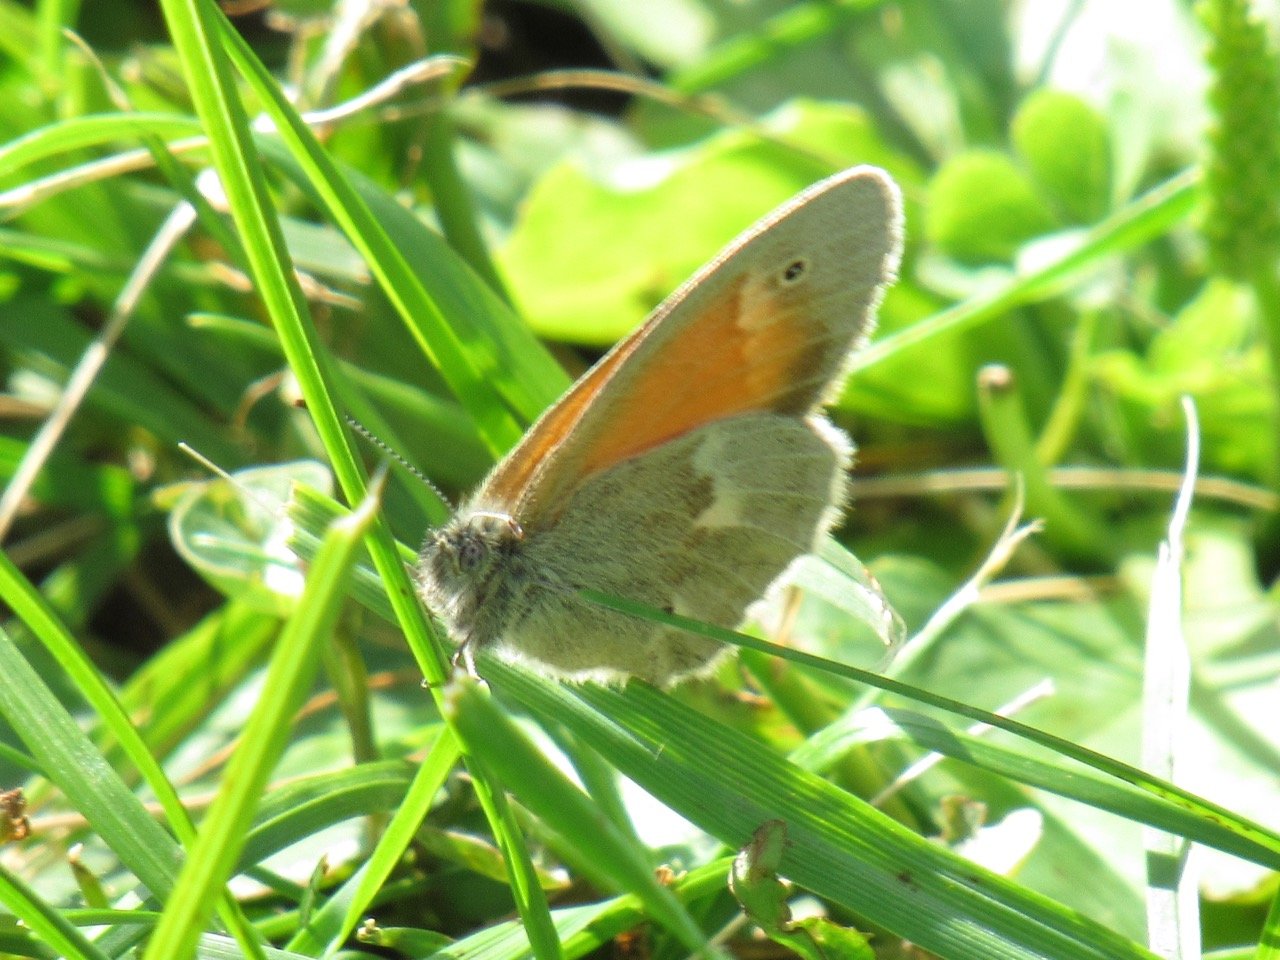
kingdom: Animalia
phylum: Arthropoda
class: Insecta
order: Lepidoptera
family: Nymphalidae
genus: Coenonympha
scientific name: Coenonympha tullia
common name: Large Heath
